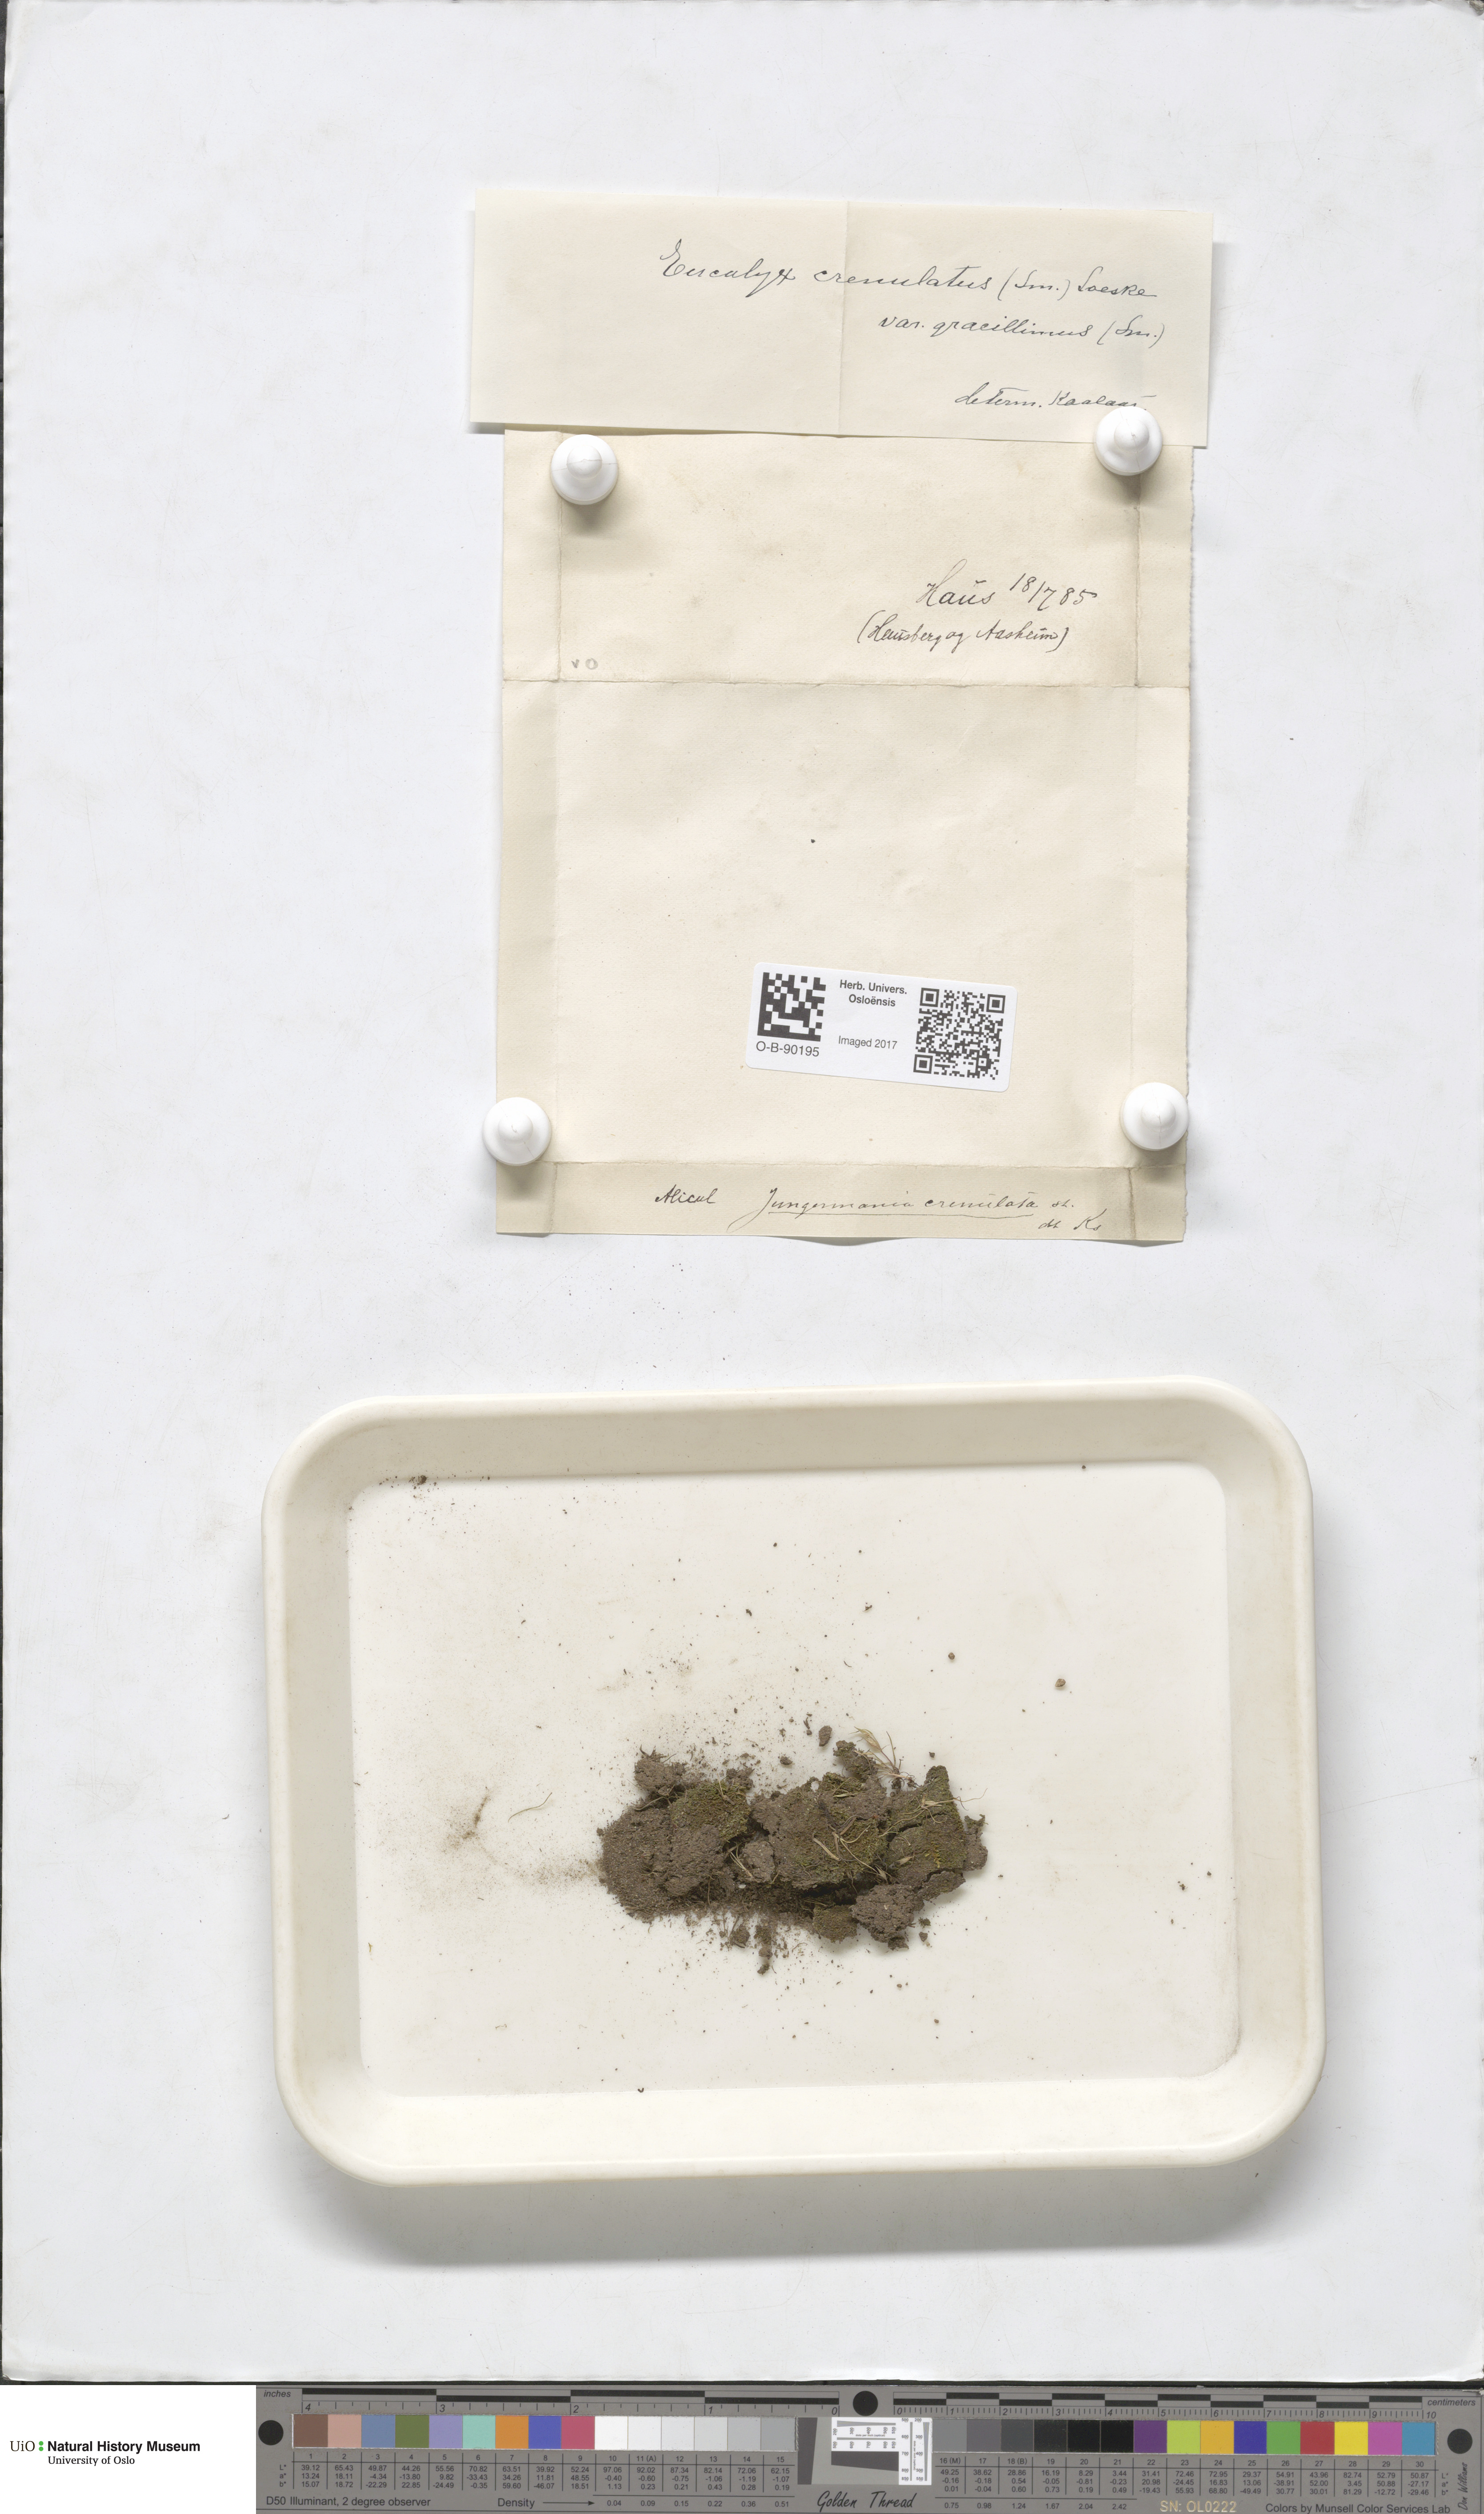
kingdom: Plantae
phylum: Marchantiophyta
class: Jungermanniopsida
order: Jungermanniales
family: Solenostomataceae
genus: Solenostoma
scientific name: Solenostoma gracillimum
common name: Crenulated flapwort
